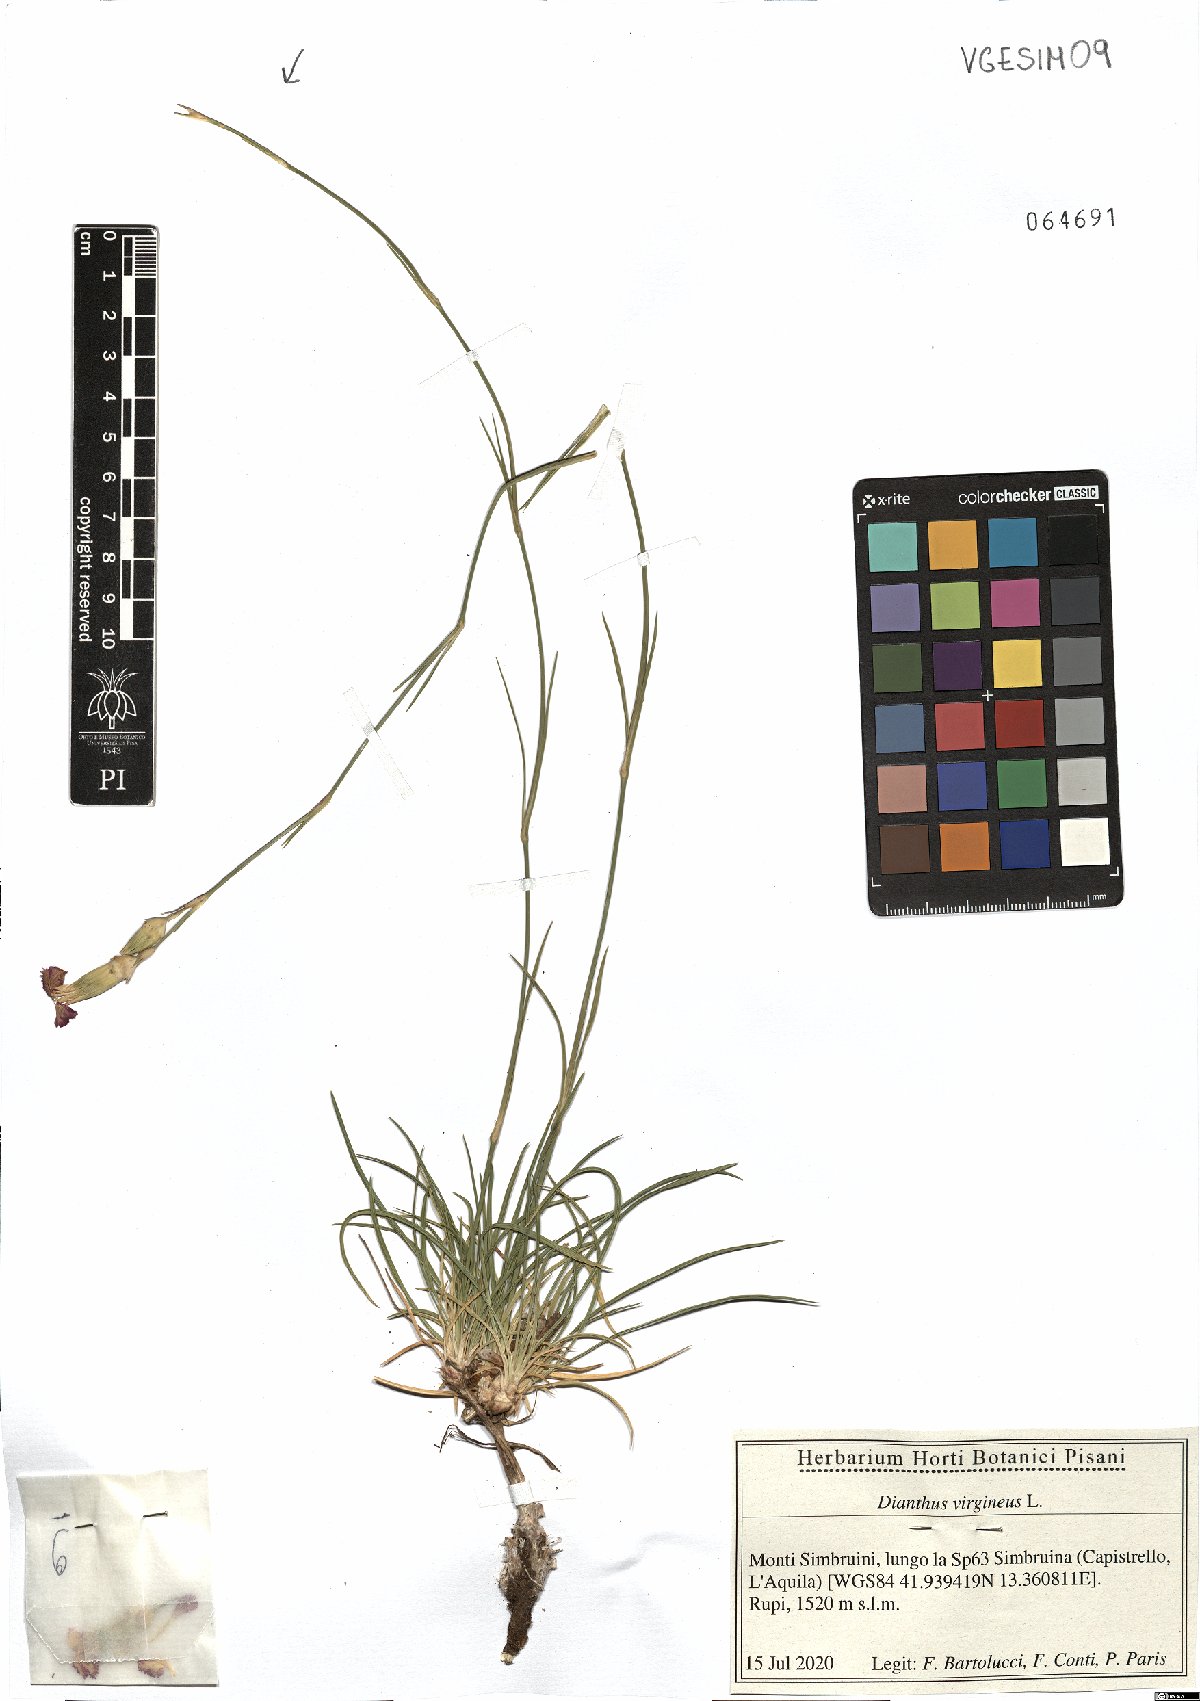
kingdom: Plantae
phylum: Tracheophyta
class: Magnoliopsida
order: Caryophyllales
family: Caryophyllaceae
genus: Dianthus
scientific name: Dianthus virgineus
